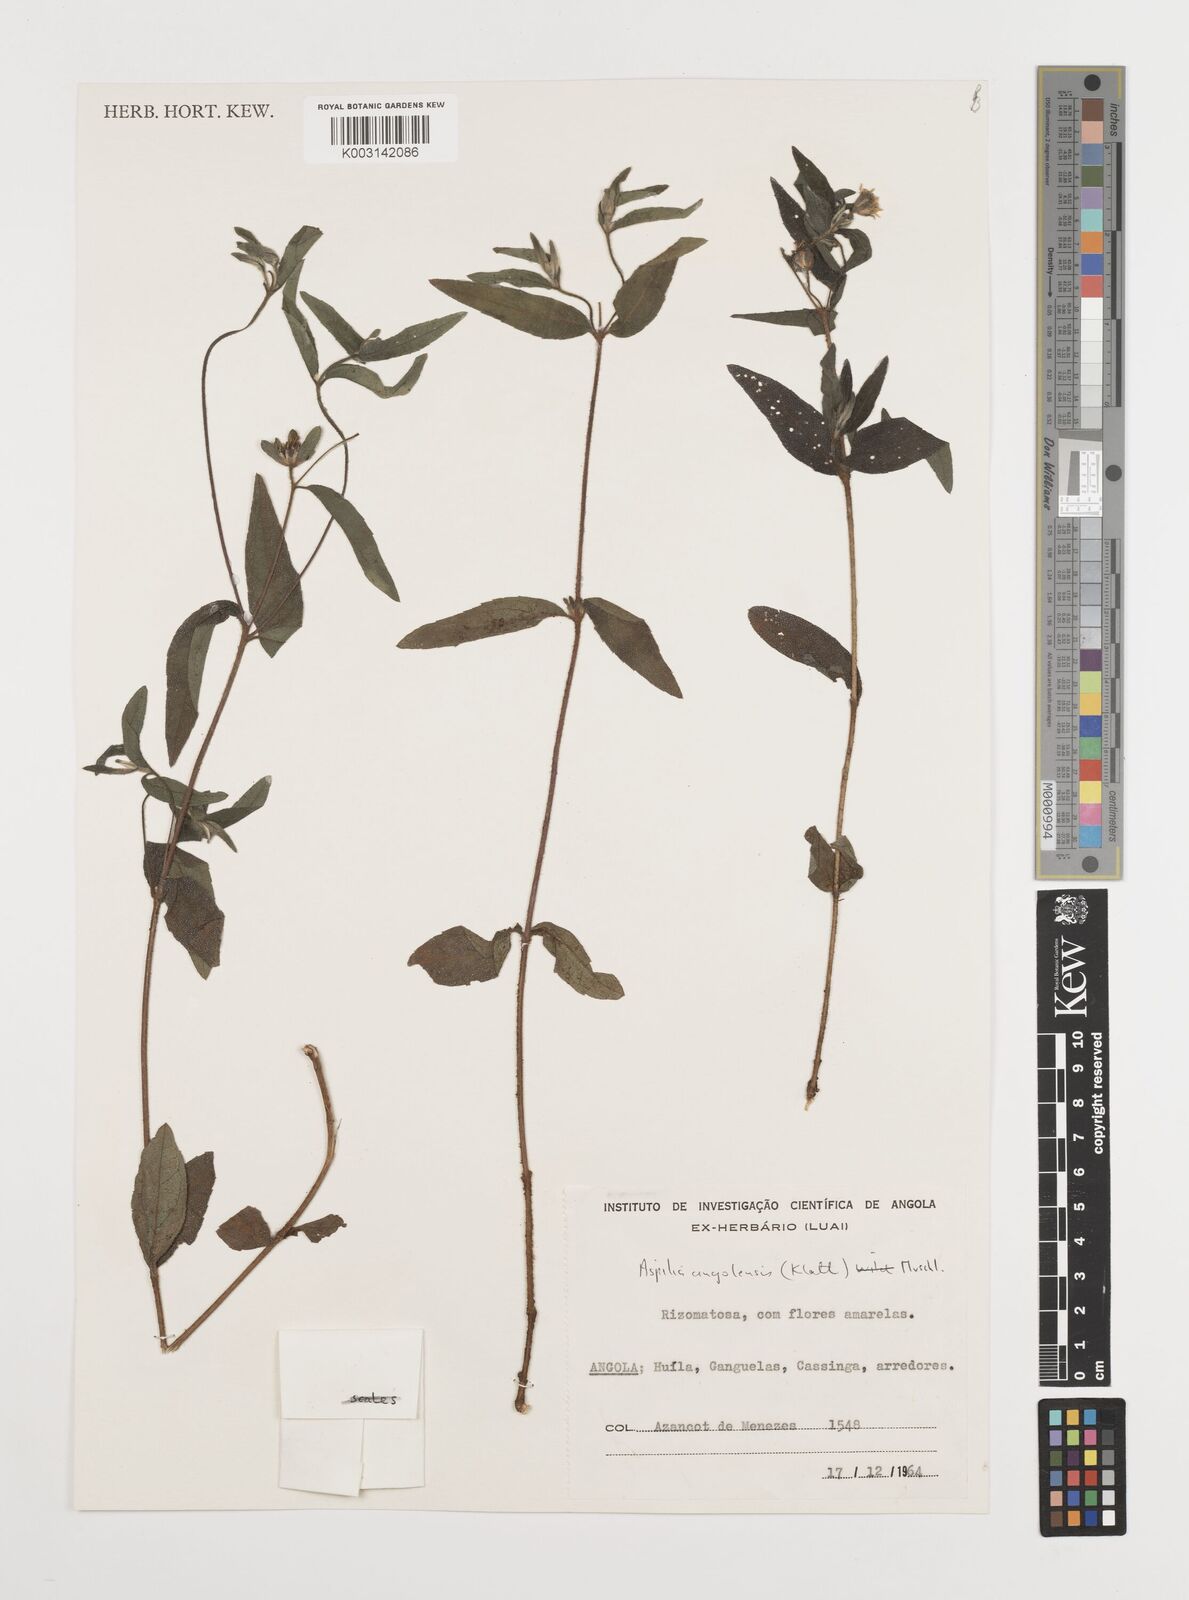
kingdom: Plantae
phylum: Tracheophyta
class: Magnoliopsida
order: Asterales
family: Asteraceae
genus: Aspilia
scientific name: Aspilia angolensis
